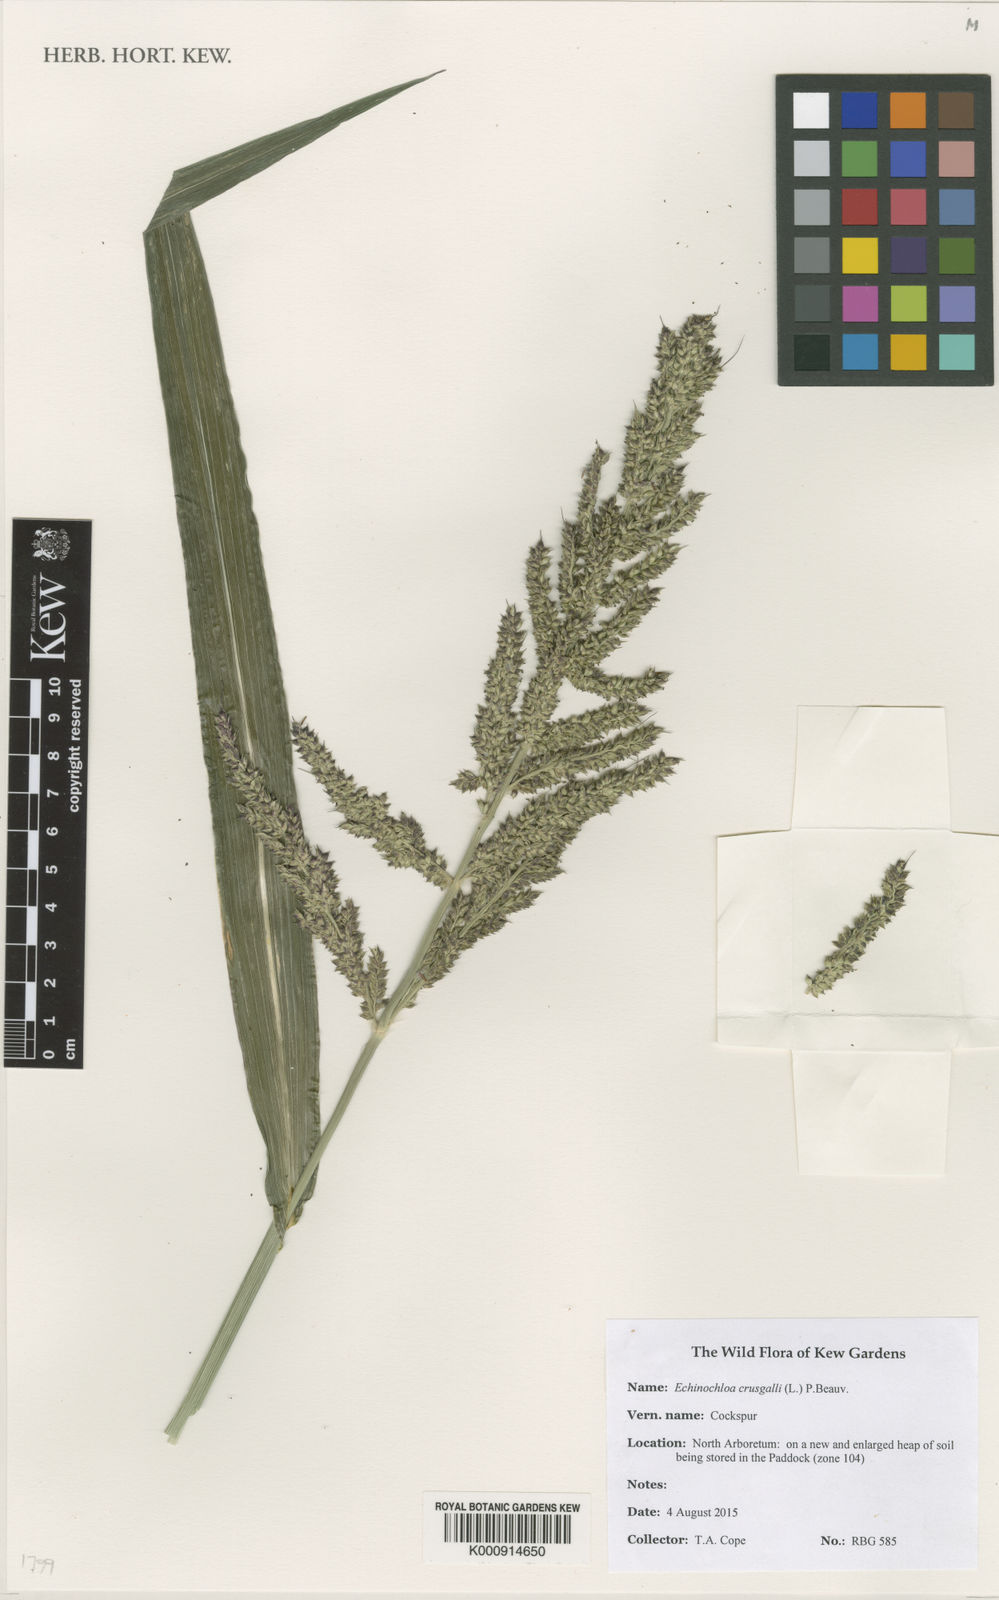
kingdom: Plantae
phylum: Tracheophyta
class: Liliopsida
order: Poales
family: Poaceae
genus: Echinochloa
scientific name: Echinochloa crus-galli
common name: Cockspur
